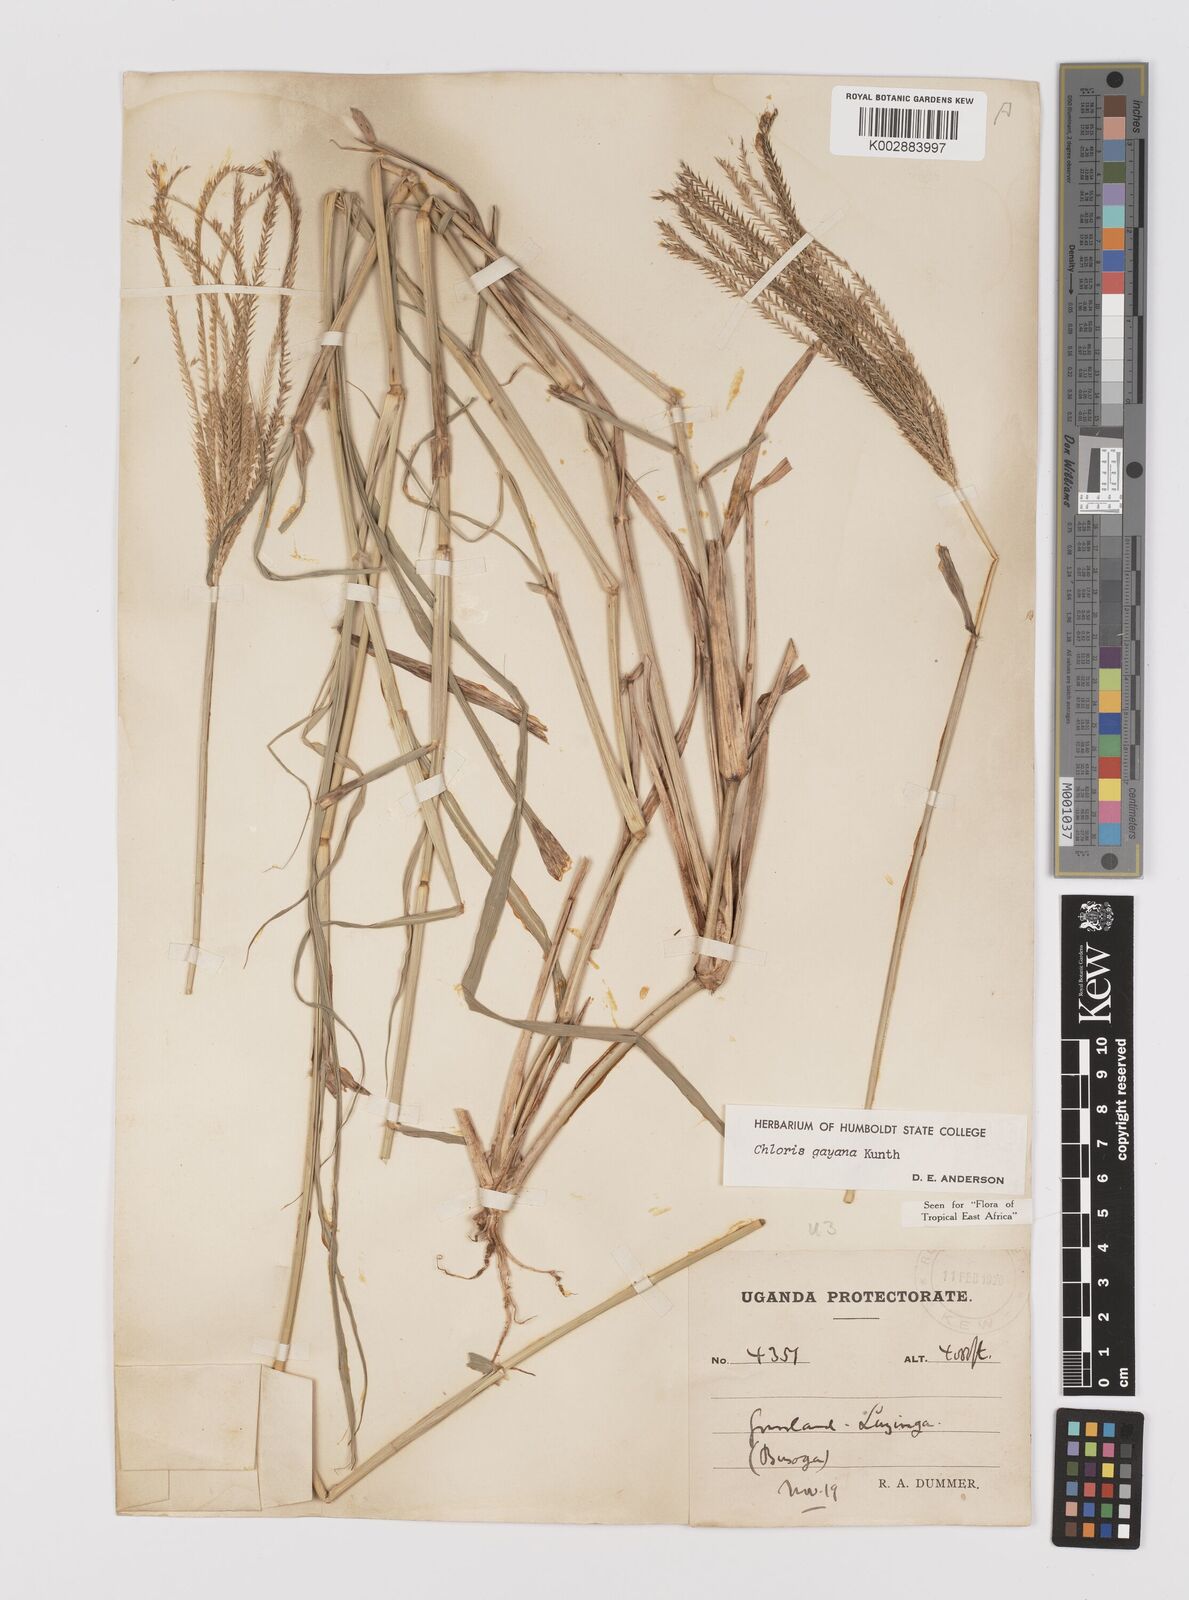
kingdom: Plantae
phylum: Tracheophyta
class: Liliopsida
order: Poales
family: Poaceae
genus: Chloris
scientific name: Chloris gayana
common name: Rhodes grass
